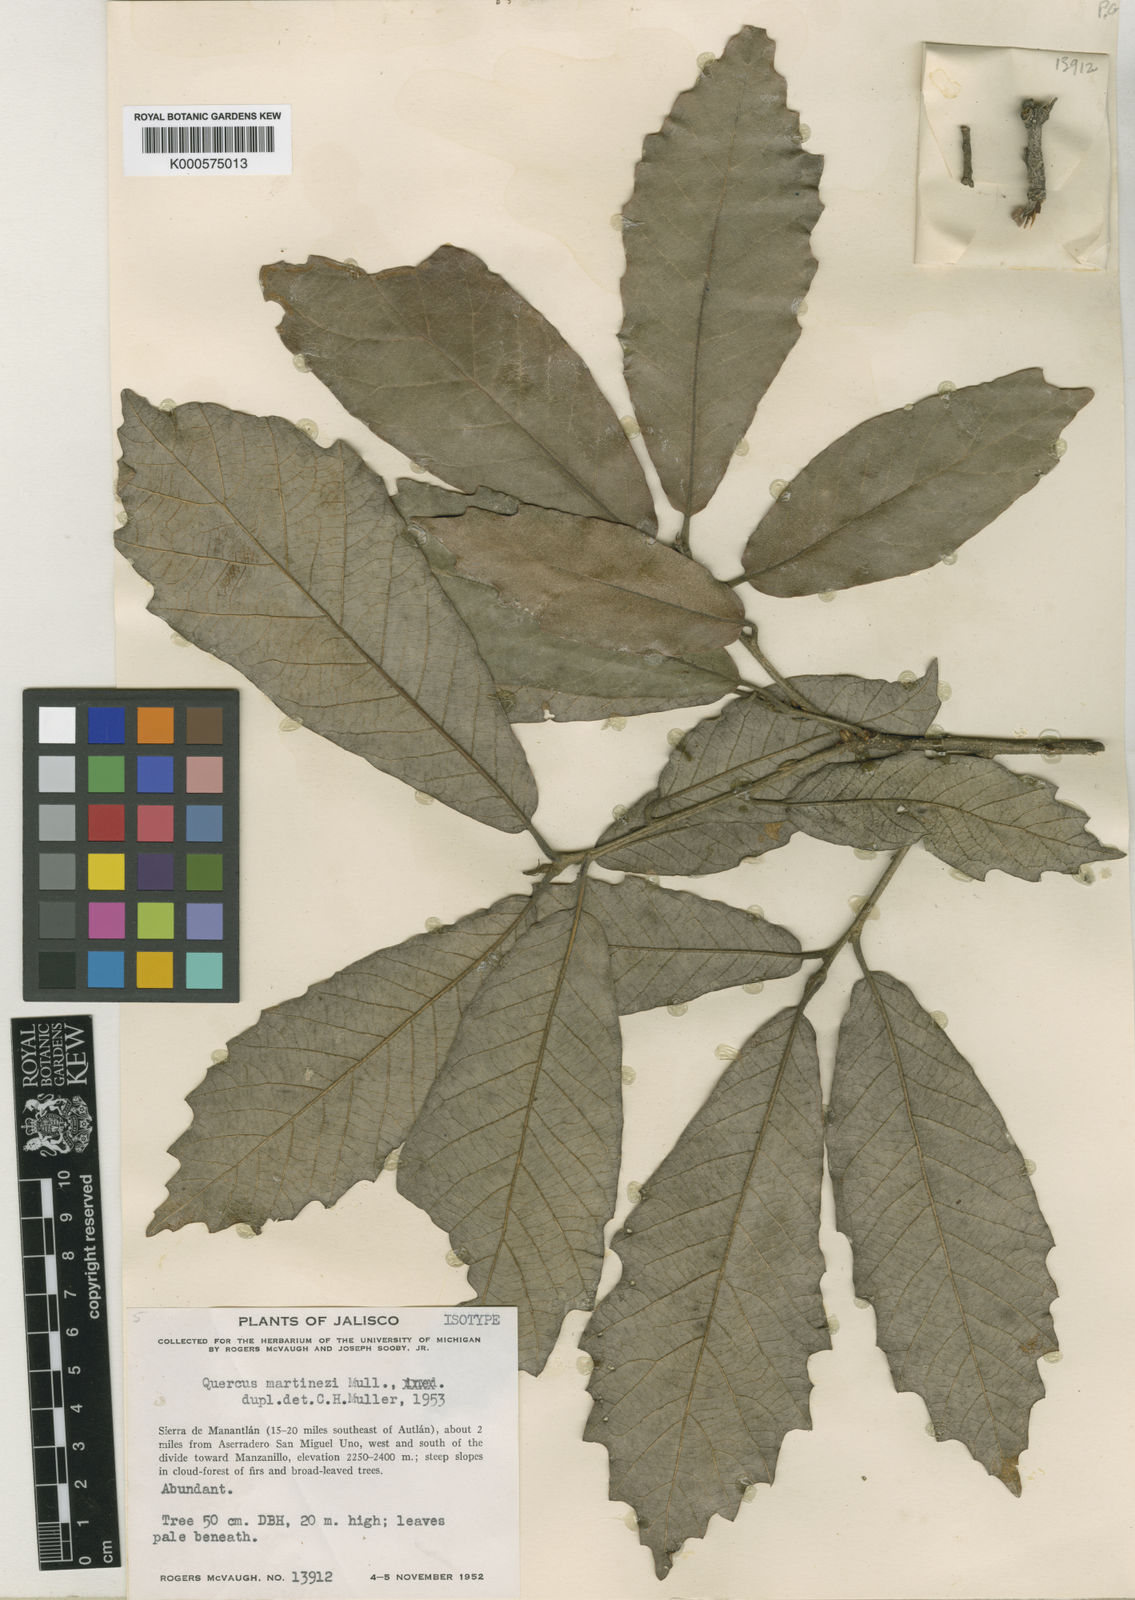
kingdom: Plantae
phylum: Tracheophyta
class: Magnoliopsida
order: Fagales
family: Fagaceae
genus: Quercus
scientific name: Quercus martinezii
